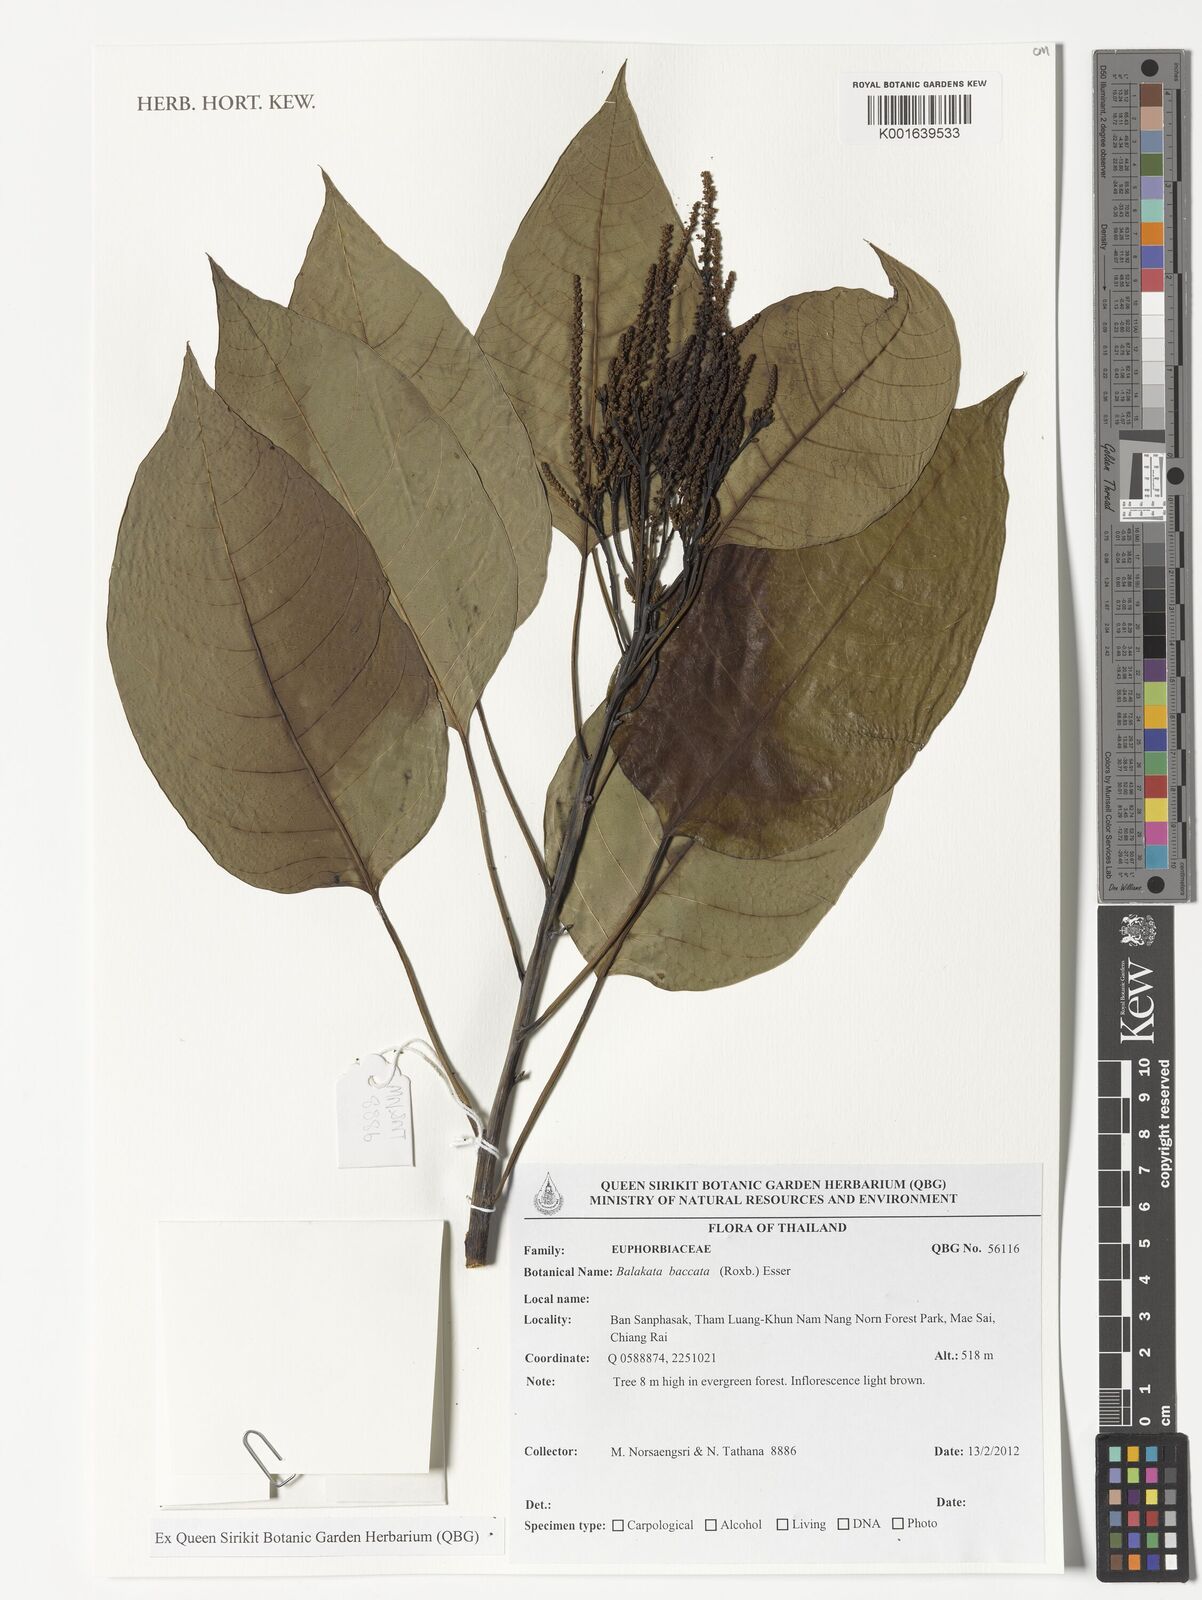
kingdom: Plantae
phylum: Tracheophyta
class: Magnoliopsida
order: Malpighiales
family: Euphorbiaceae
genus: Balakata
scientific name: Balakata baccata
